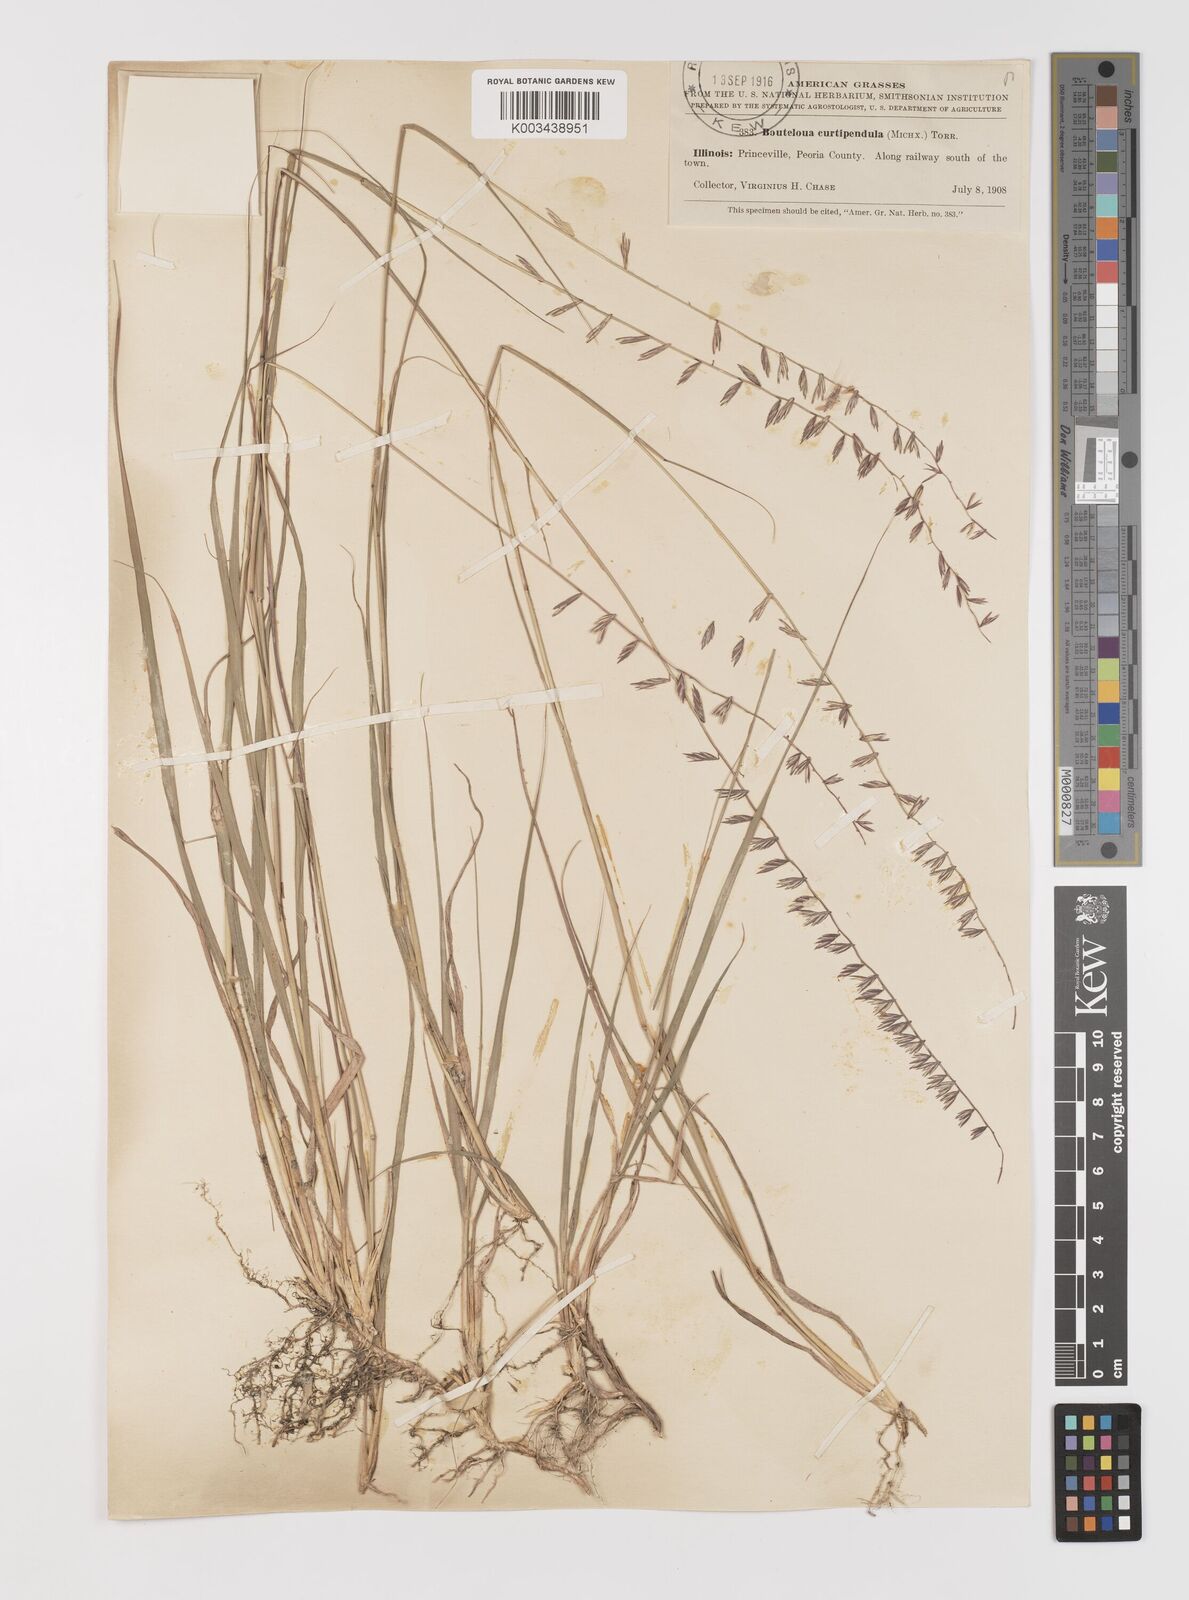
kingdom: Plantae
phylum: Tracheophyta
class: Liliopsida
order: Poales
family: Poaceae
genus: Bouteloua
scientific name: Bouteloua curtipendula
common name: Side-oats grama
